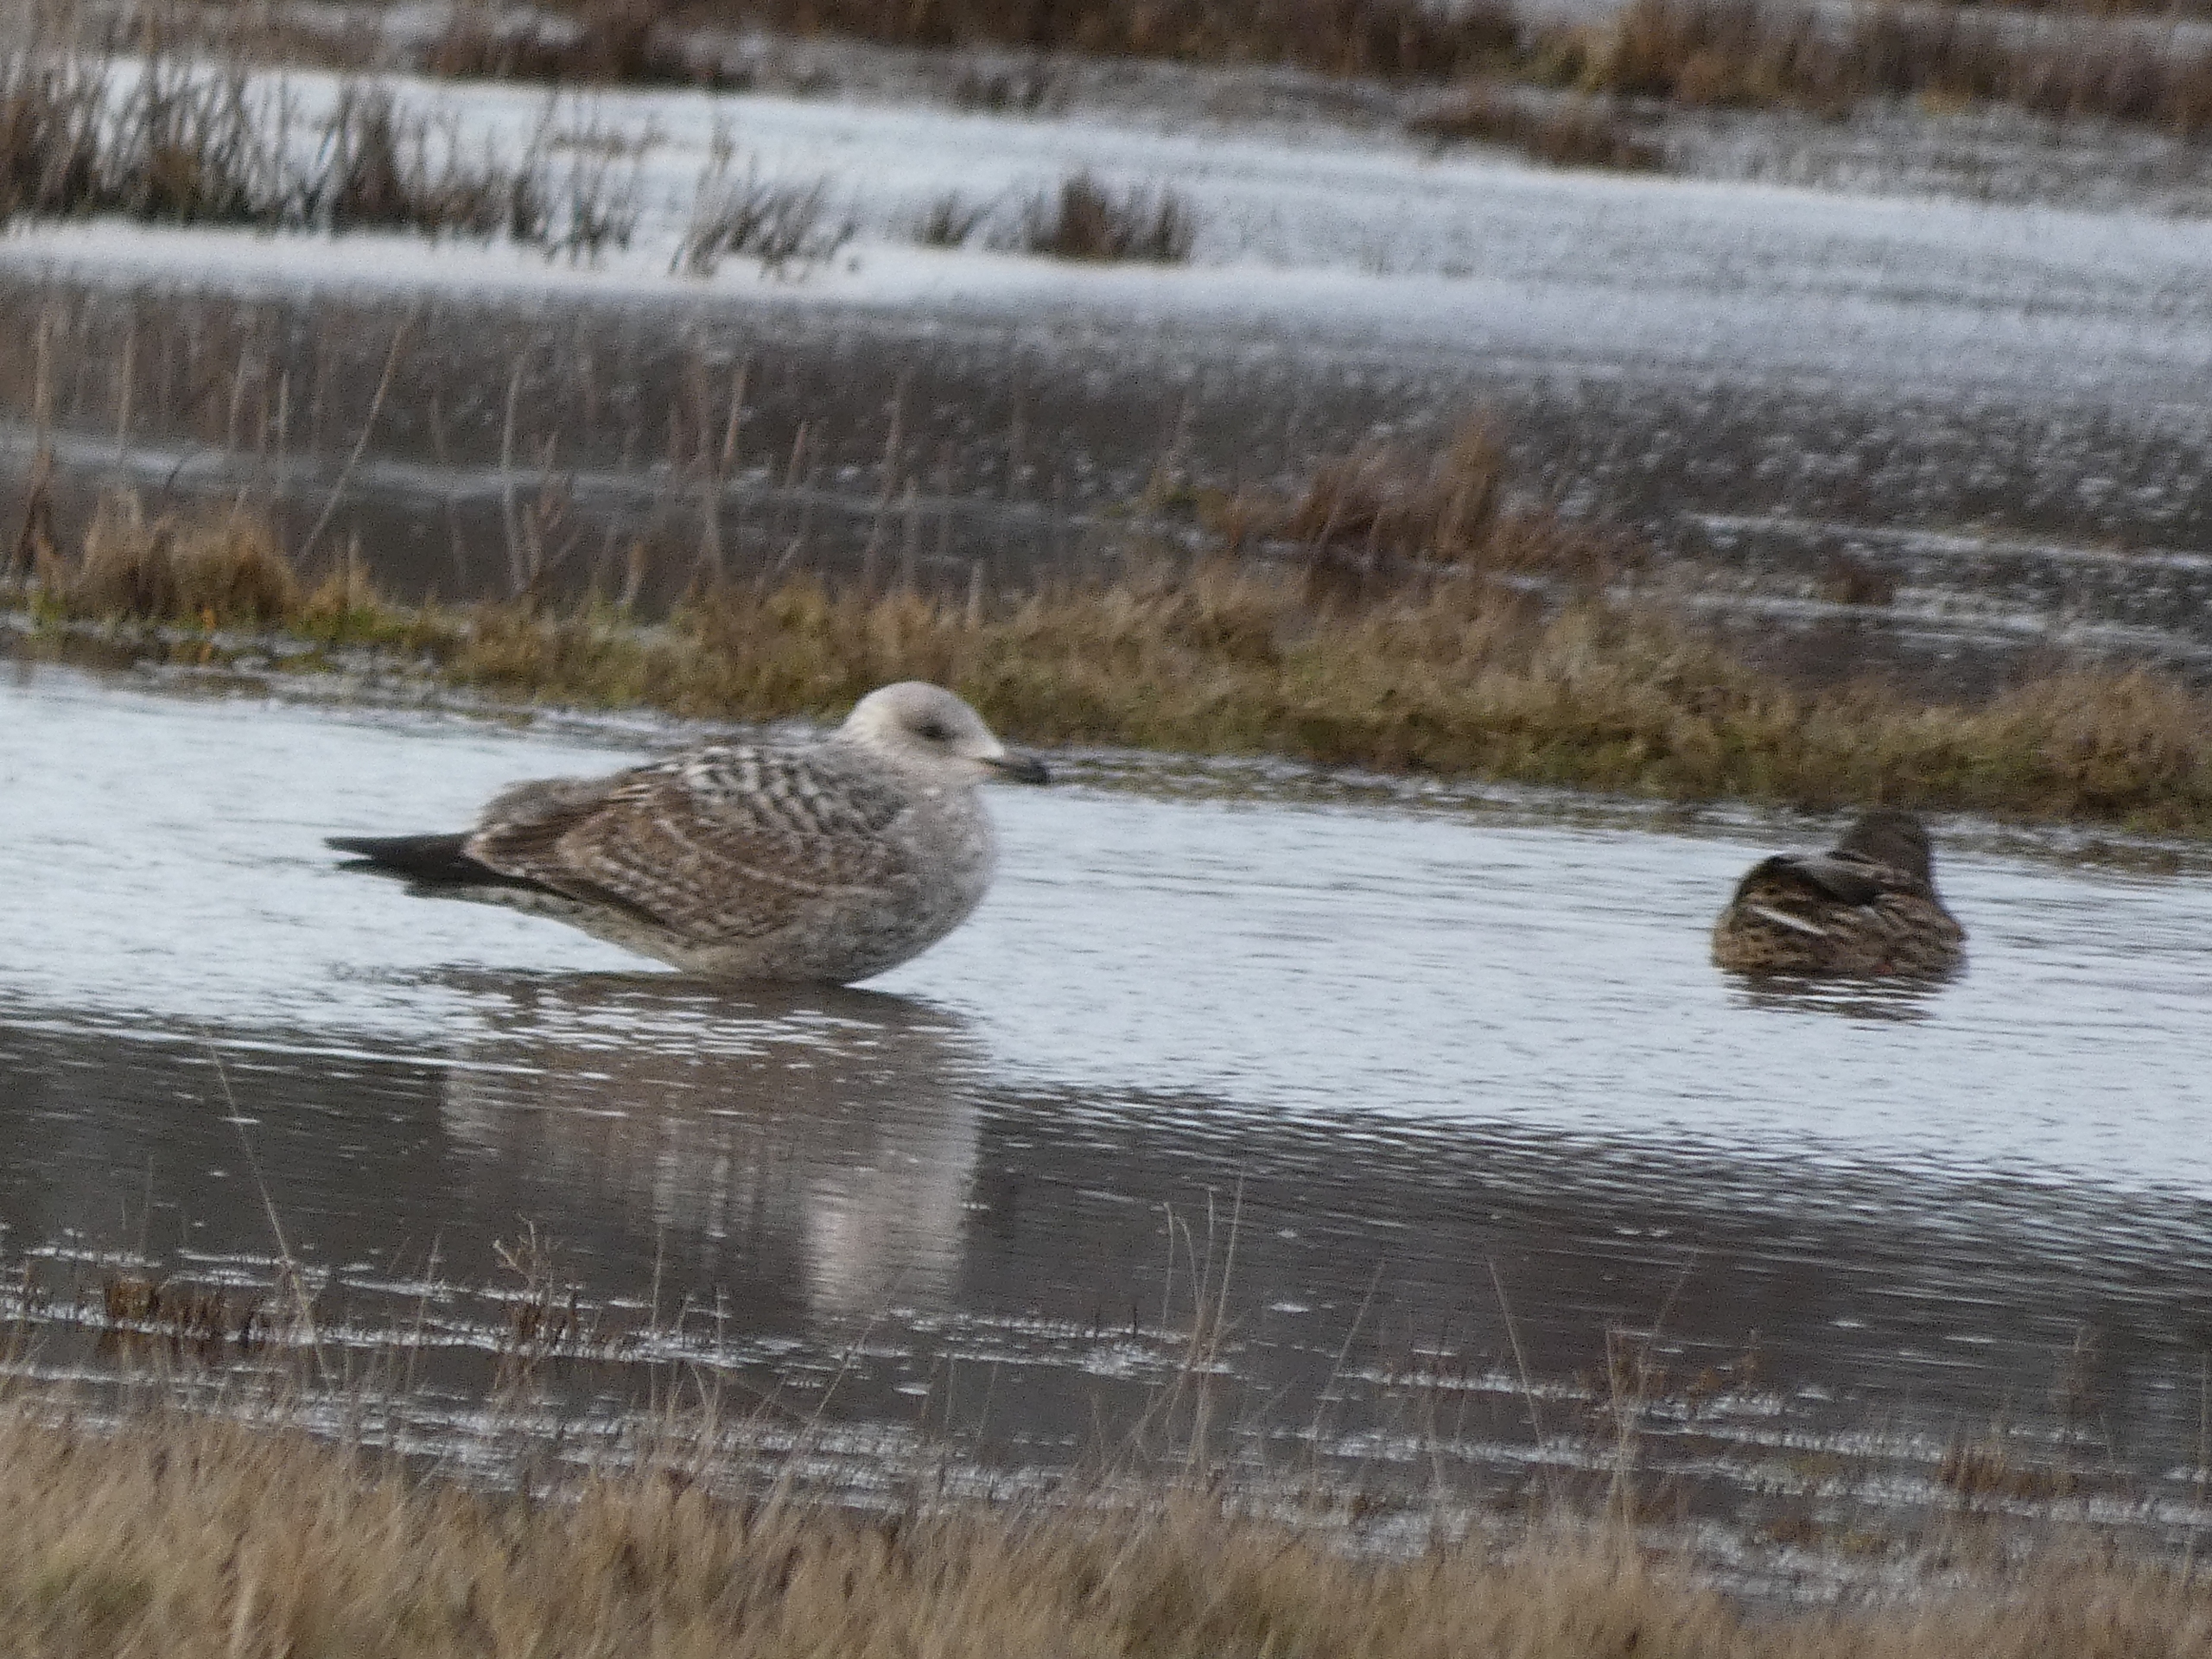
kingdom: Animalia
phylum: Chordata
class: Aves
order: Charadriiformes
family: Laridae
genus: Larus
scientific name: Larus argentatus
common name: Sølvmåge
